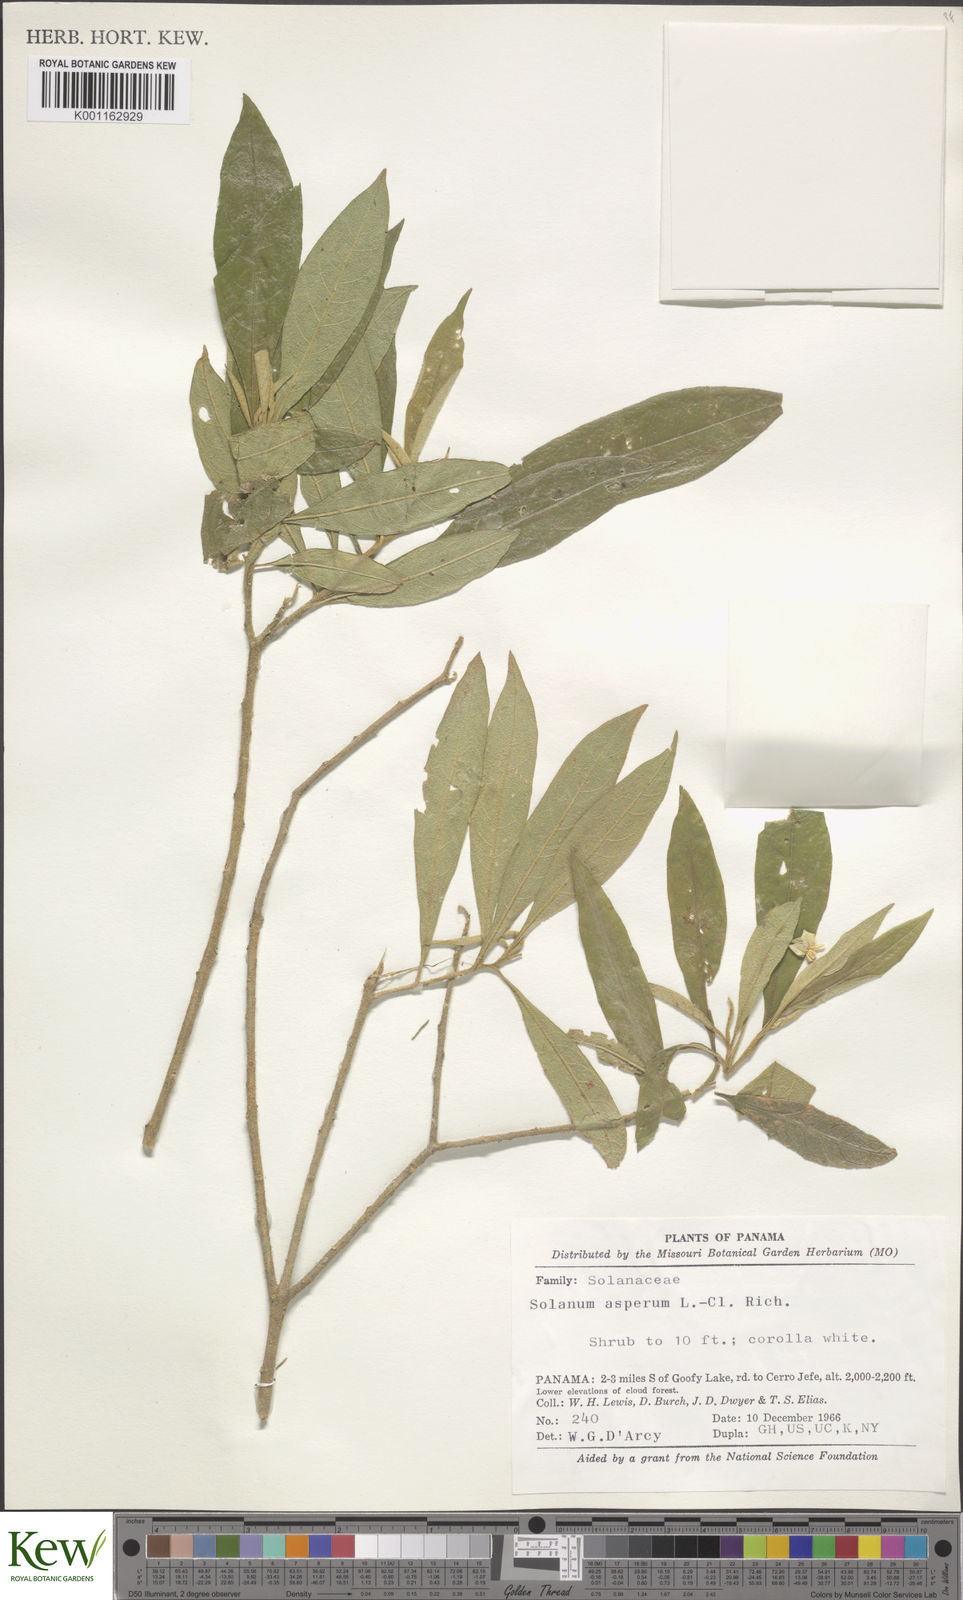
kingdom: Plantae
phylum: Tracheophyta
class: Magnoliopsida
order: Solanales
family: Solanaceae
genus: Solanum
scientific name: Solanum asperum
